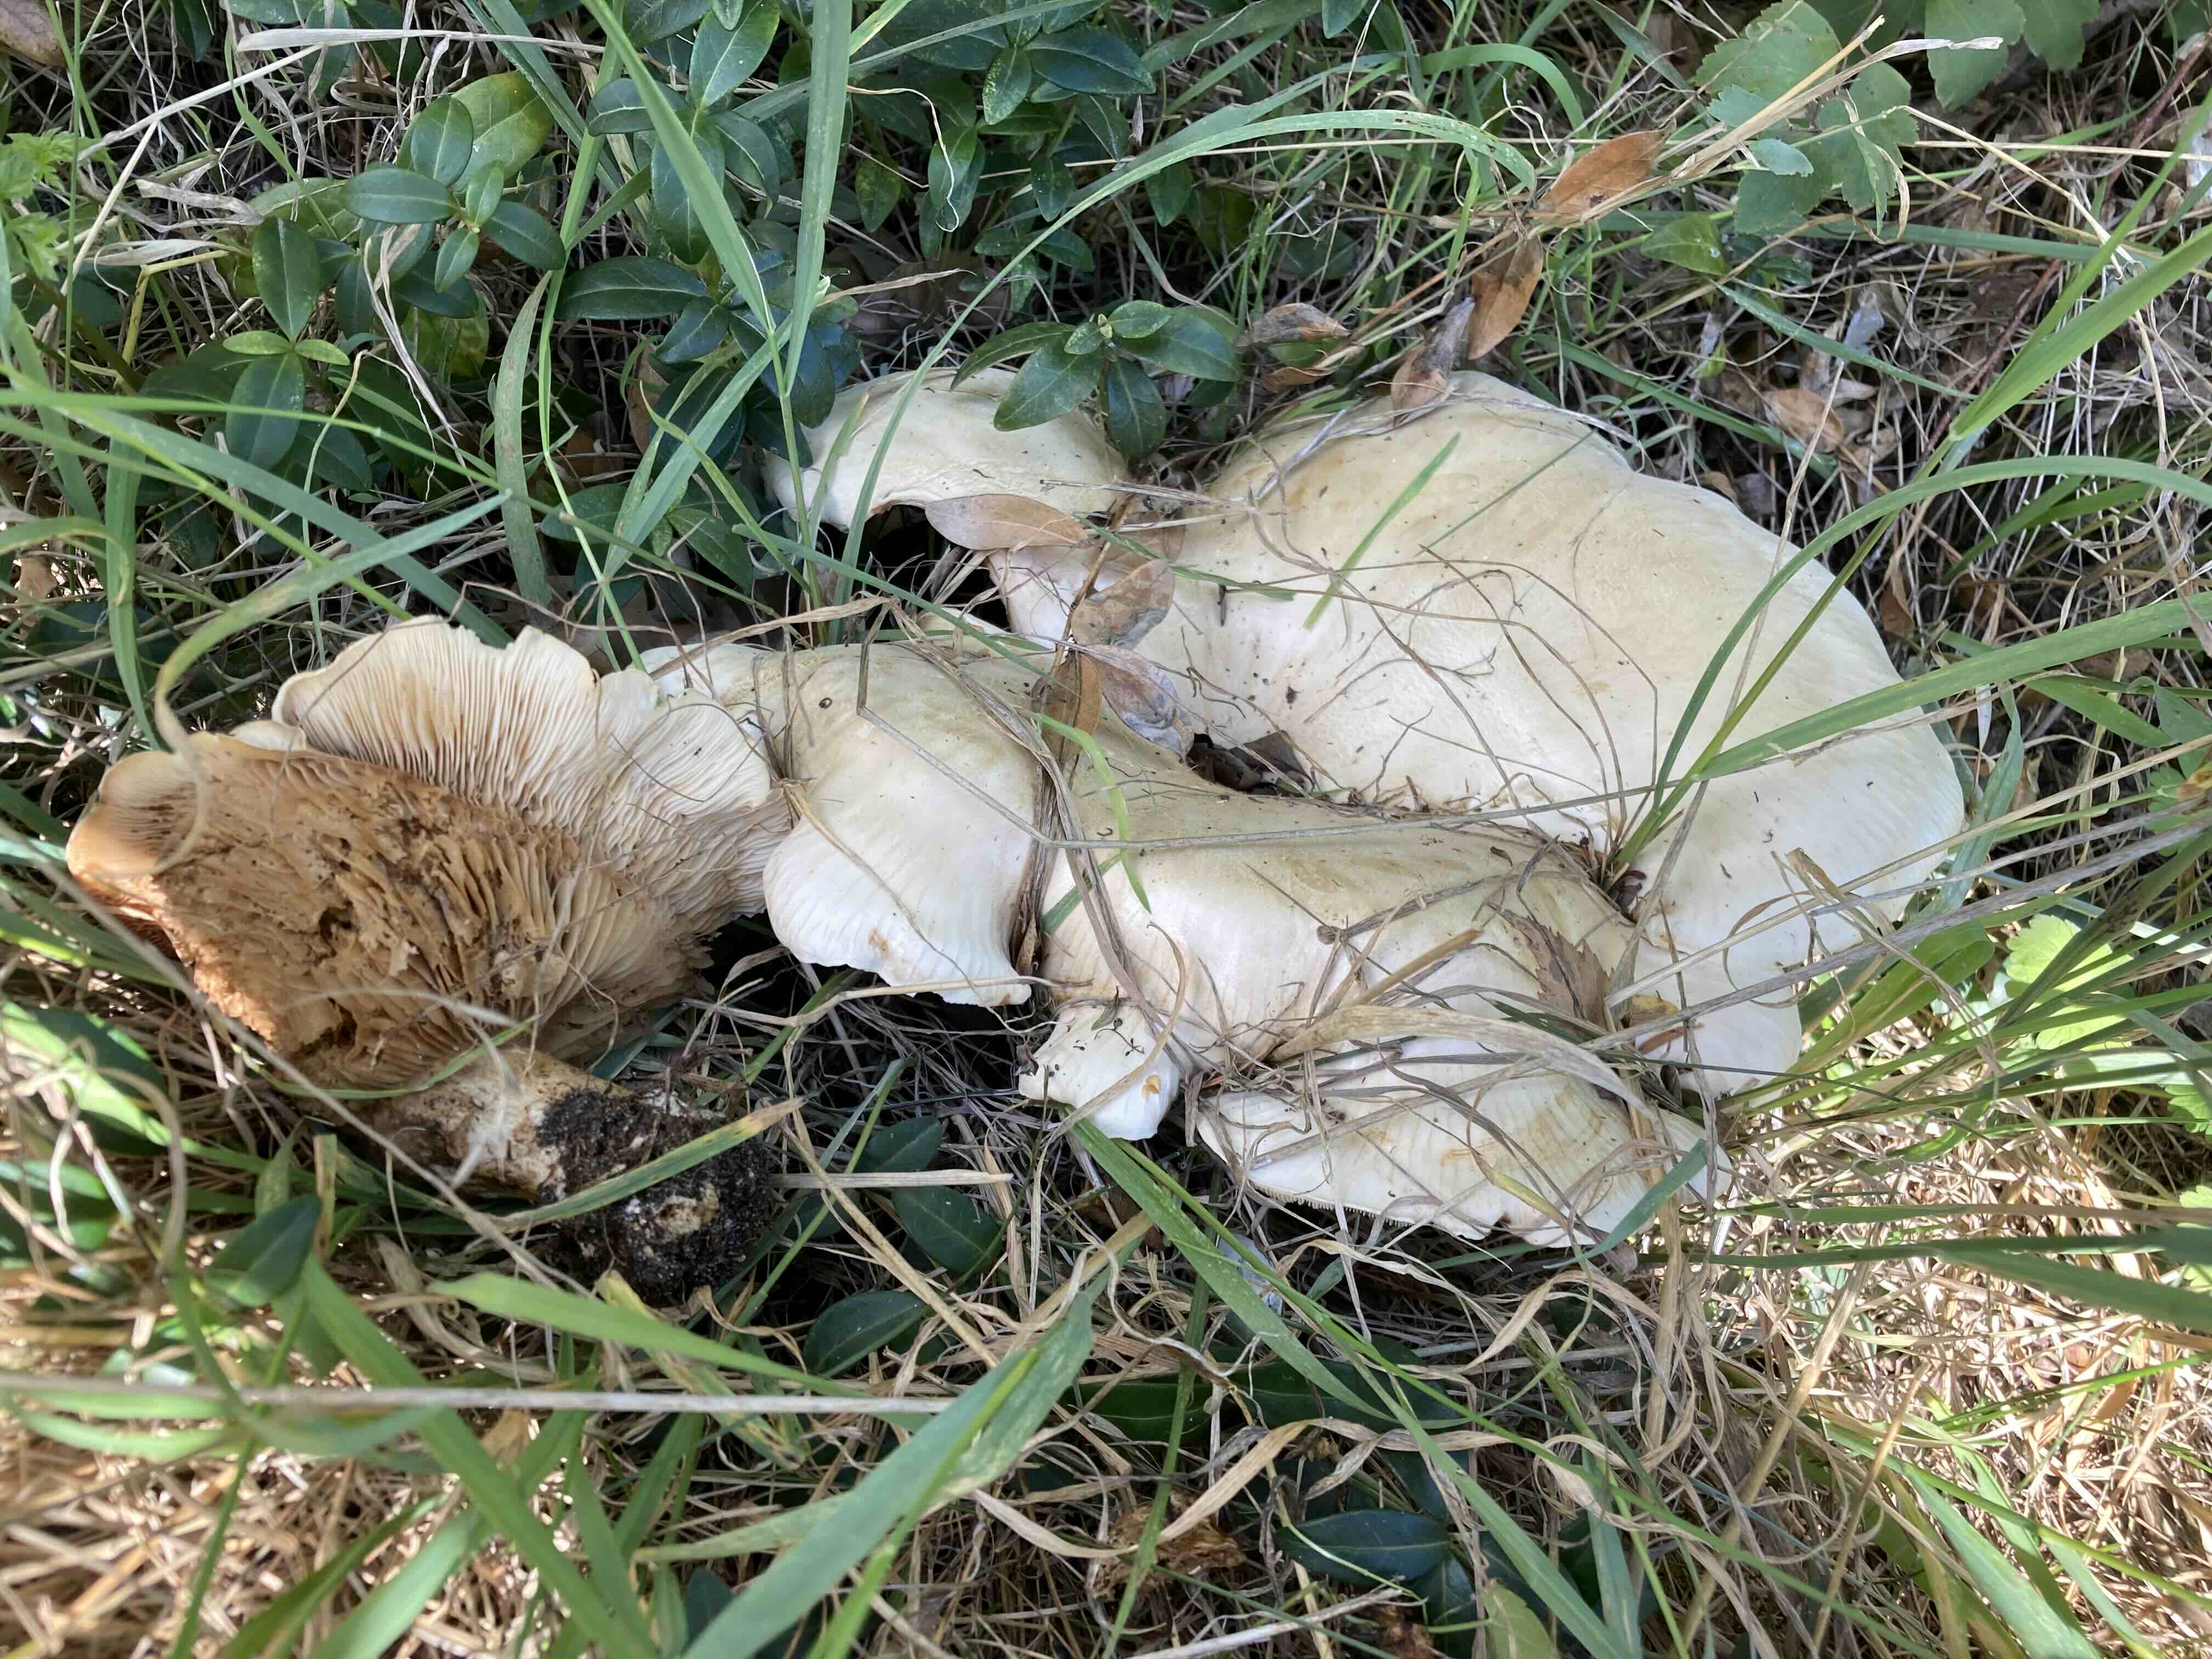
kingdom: Fungi
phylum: Basidiomycota
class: Agaricomycetes
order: Agaricales
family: Tricholomataceae
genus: Aspropaxillus
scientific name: Aspropaxillus giganteus
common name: kæmpe-tragtridderhat
